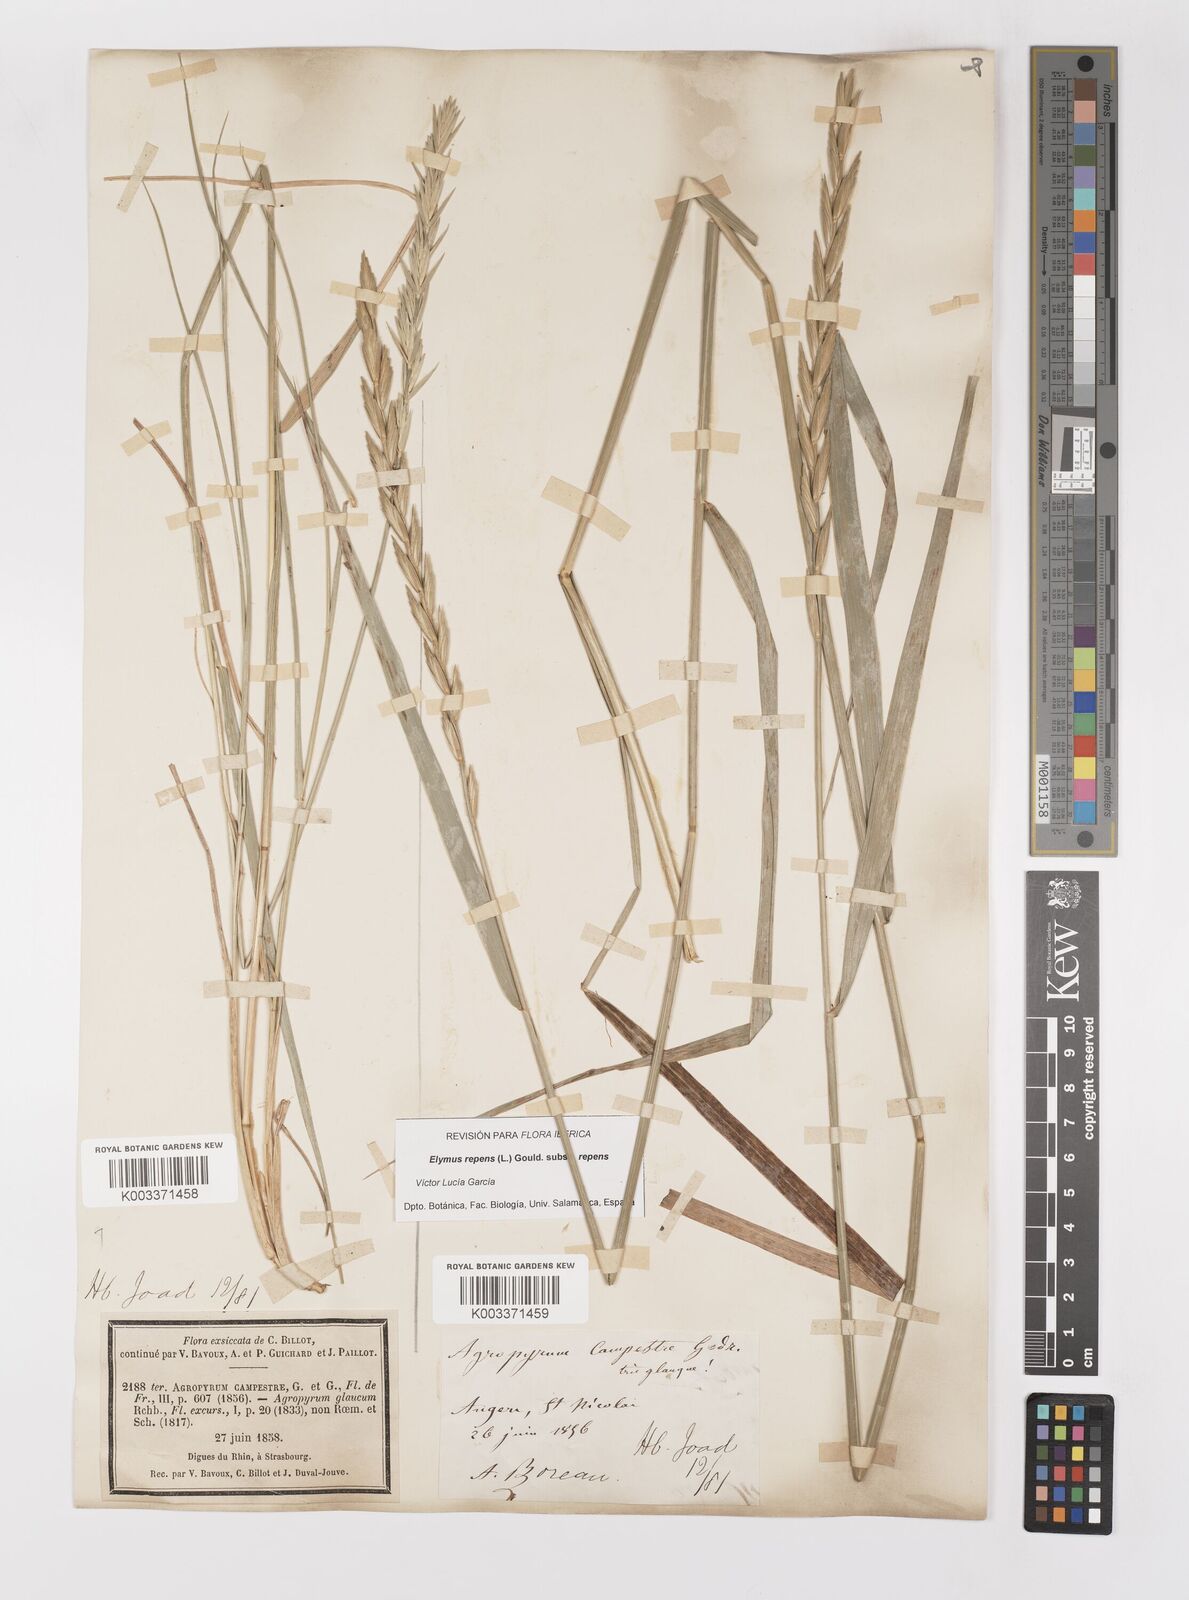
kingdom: Plantae
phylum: Tracheophyta
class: Liliopsida
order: Poales
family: Poaceae
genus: Elymus
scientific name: Elymus repens
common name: Quackgrass
